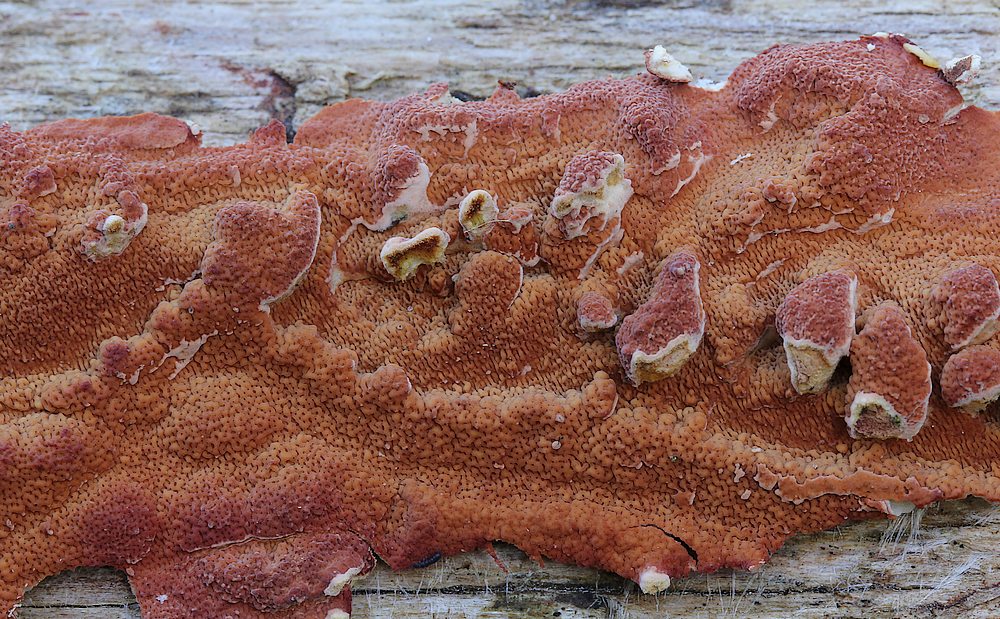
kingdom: Fungi
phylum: Basidiomycota
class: Agaricomycetes
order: Polyporales
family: Irpicaceae
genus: Meruliopsis
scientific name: Meruliopsis taxicola
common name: purpurbrun foldporesvamp
